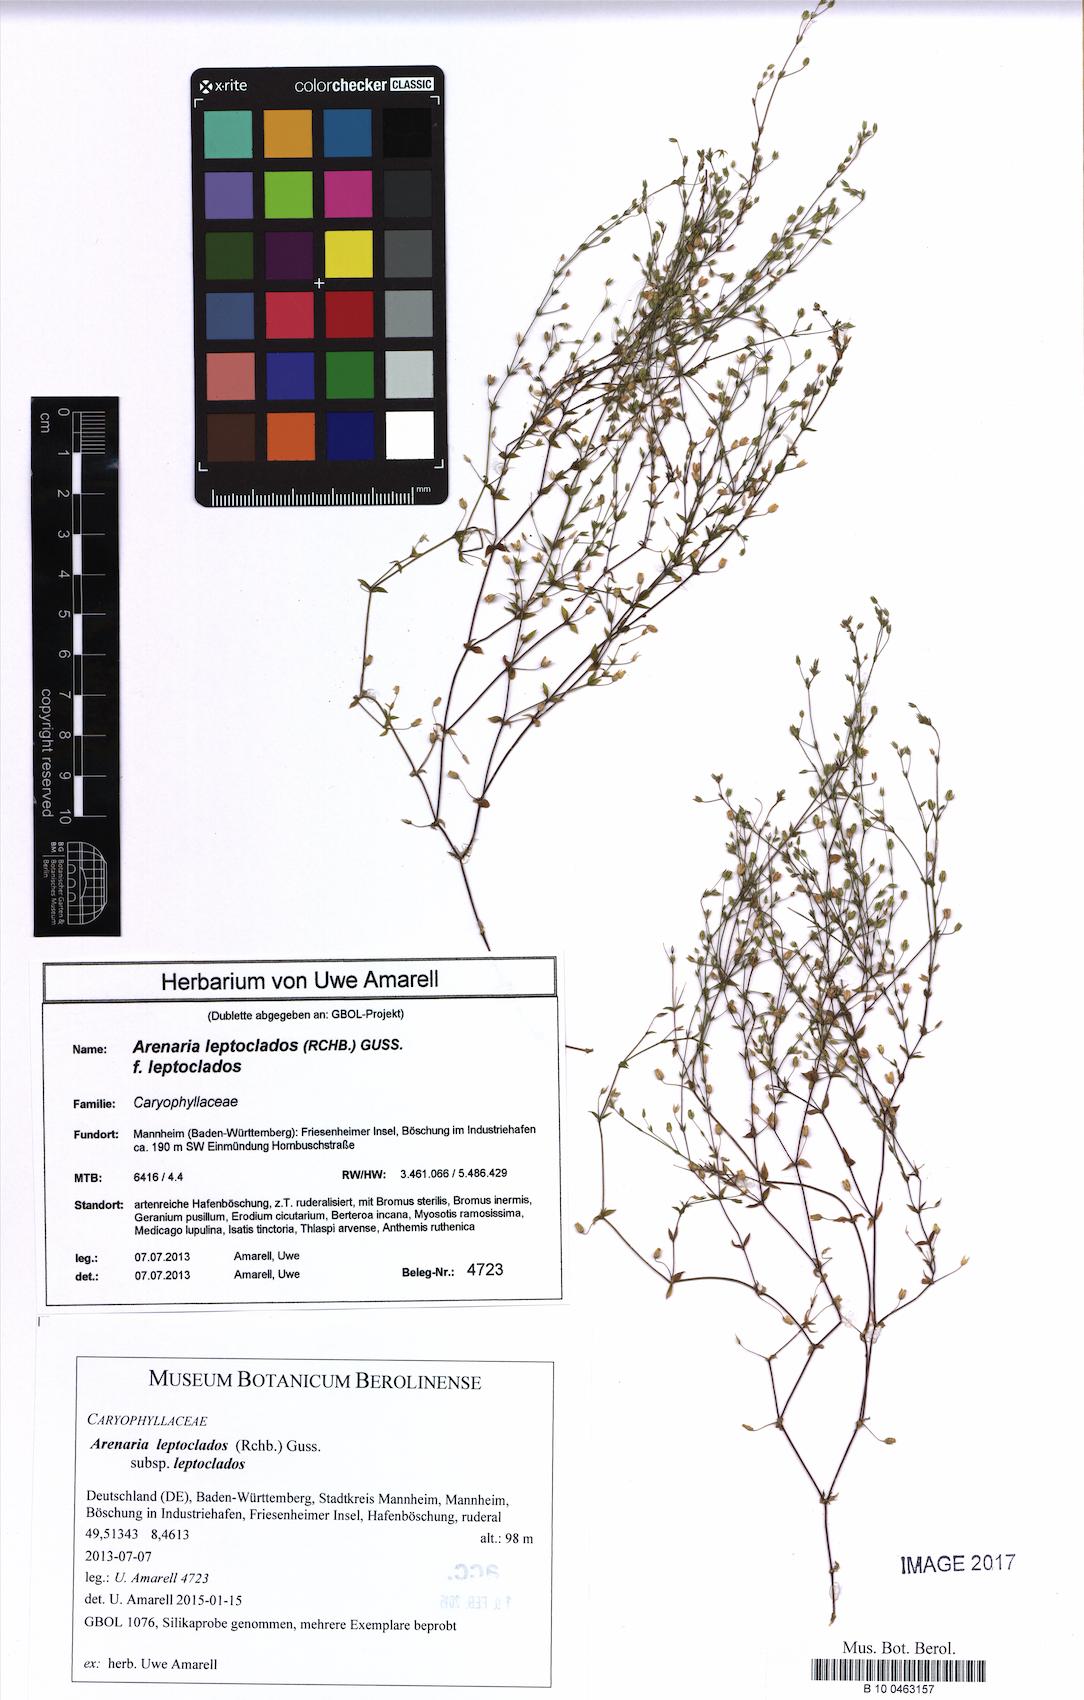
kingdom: Plantae
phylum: Tracheophyta
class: Magnoliopsida
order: Caryophyllales
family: Caryophyllaceae
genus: Arenaria
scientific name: Arenaria leptoclados
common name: Thyme-leaved sandwort
